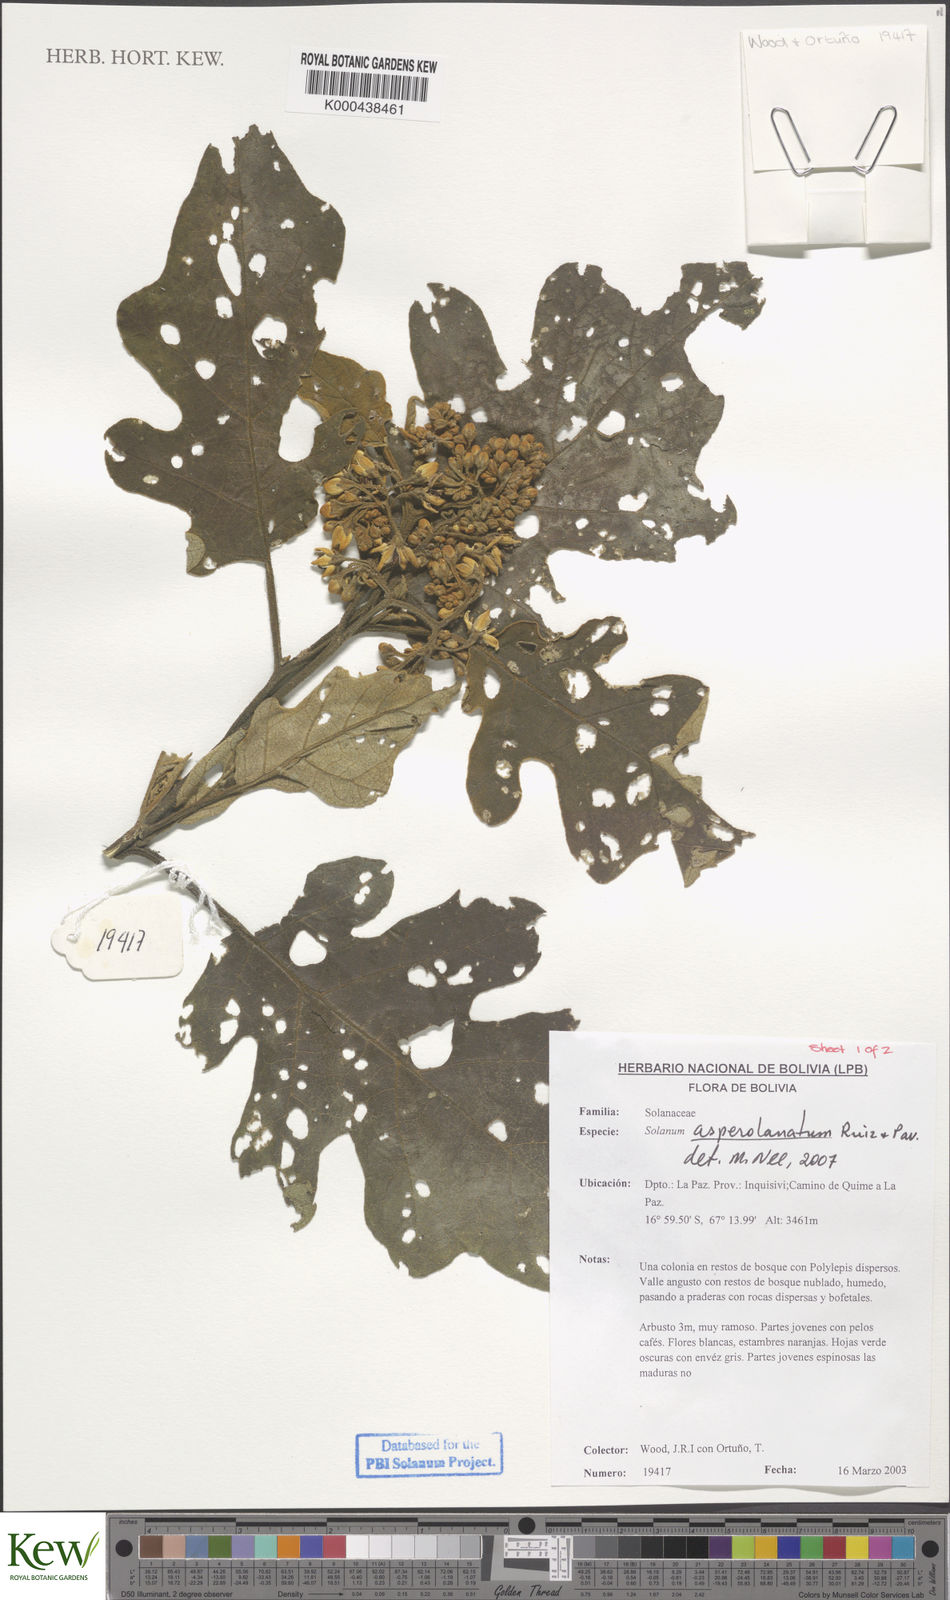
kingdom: Plantae
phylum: Tracheophyta
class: Magnoliopsida
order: Solanales
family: Solanaceae
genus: Solanum
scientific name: Solanum asperolanatum
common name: Devil's-fig
